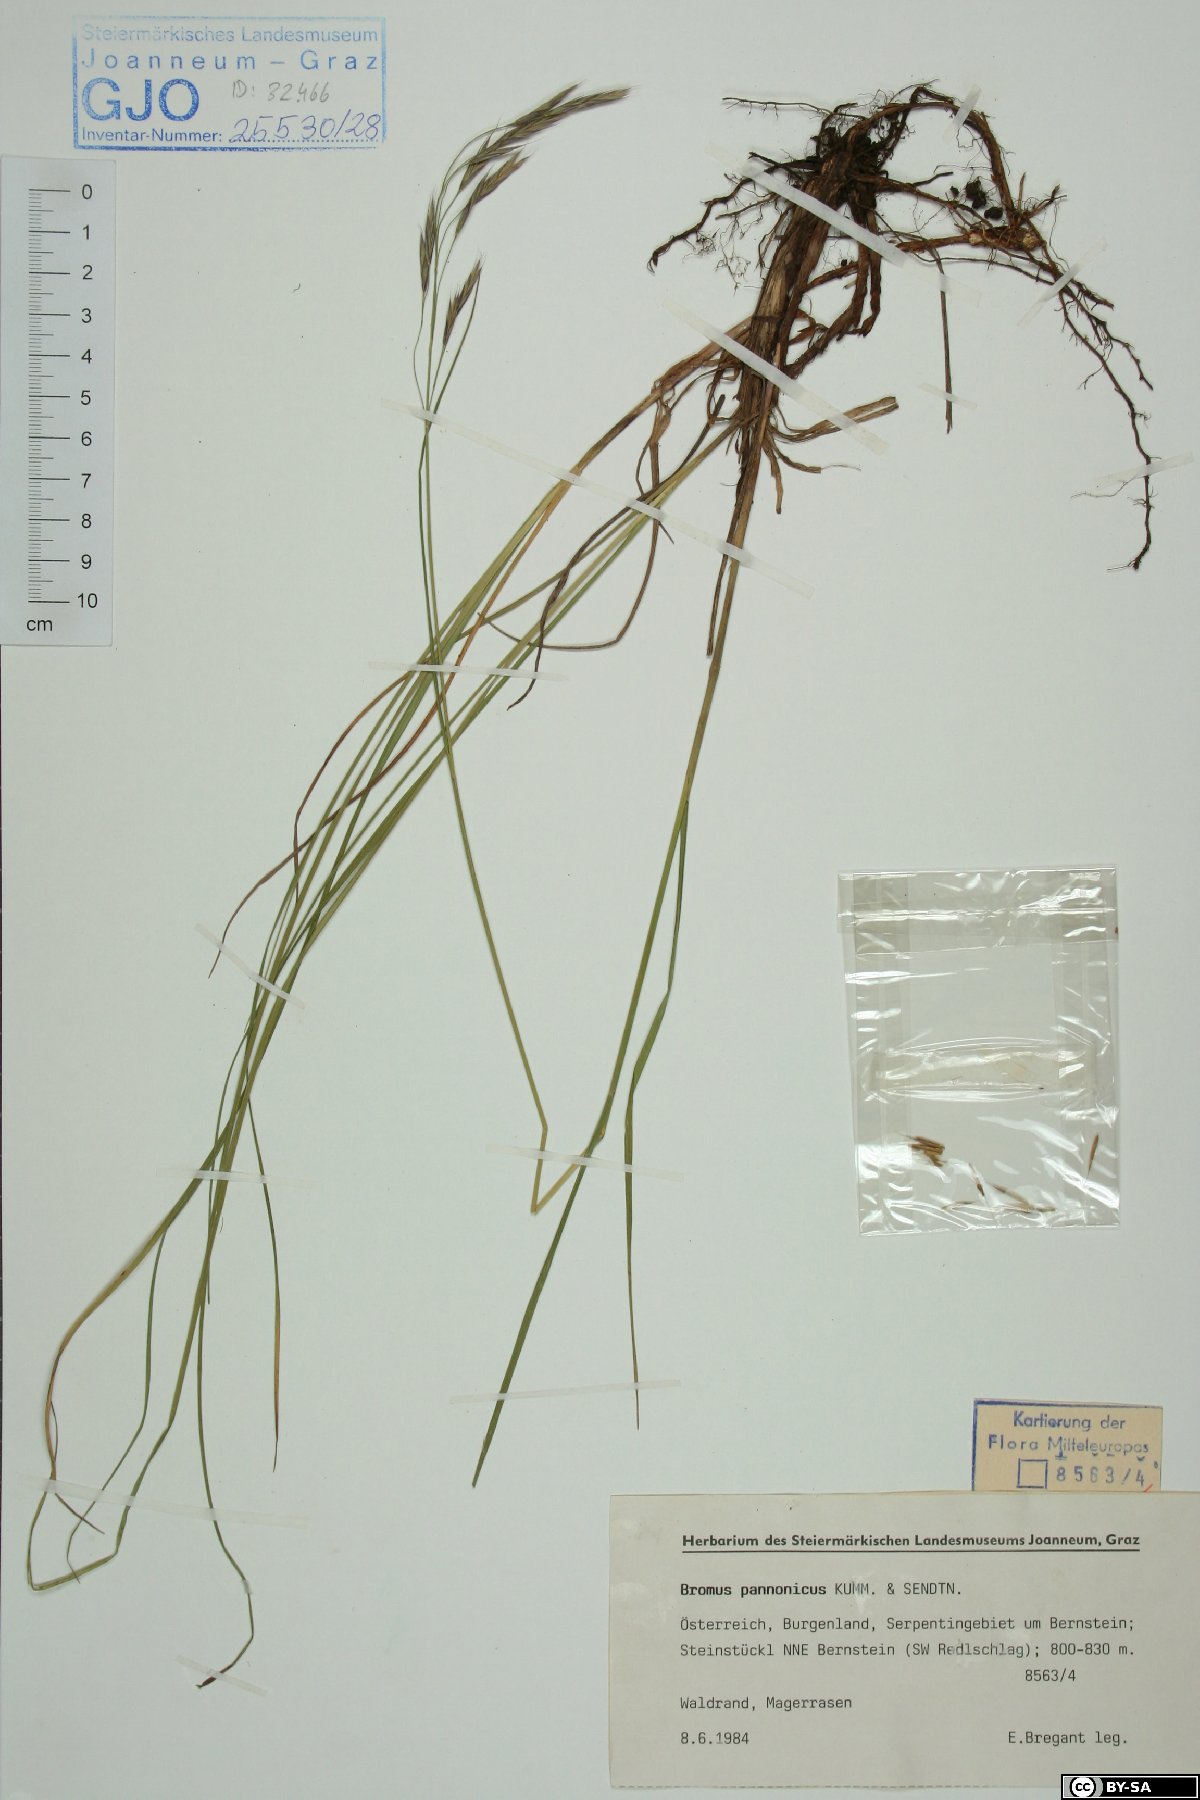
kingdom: Plantae
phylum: Tracheophyta
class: Liliopsida
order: Poales
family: Poaceae
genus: Bromus
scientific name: Bromus pannonicus
